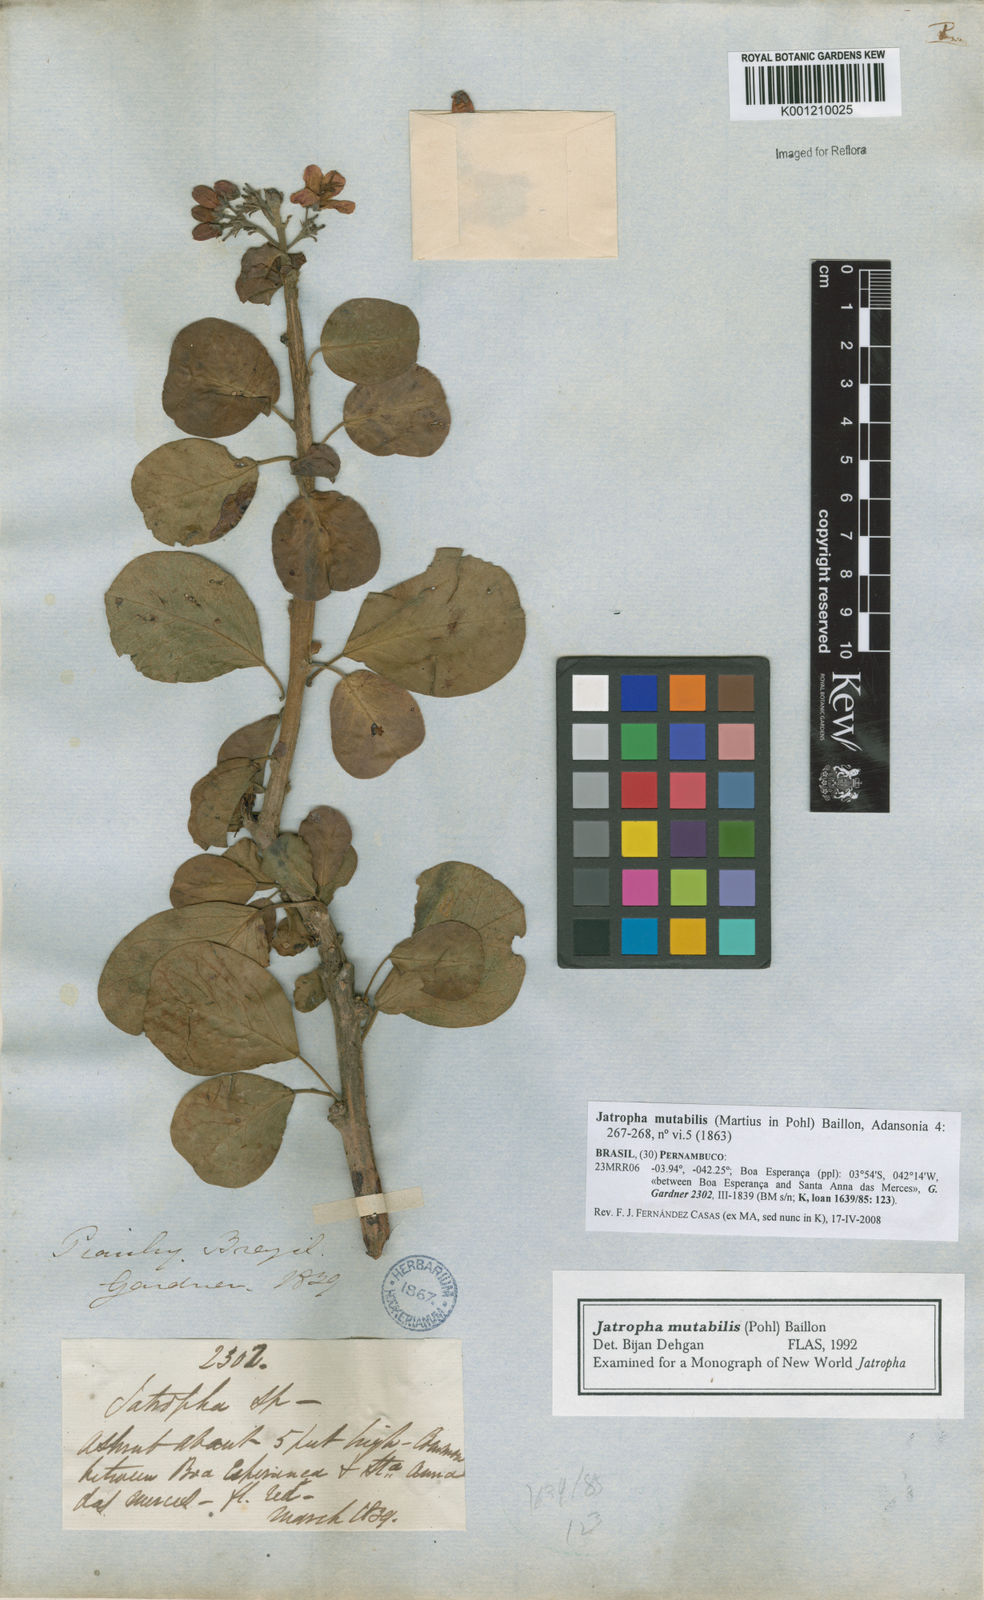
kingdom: Plantae
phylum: Tracheophyta
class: Magnoliopsida
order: Malpighiales
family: Euphorbiaceae
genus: Jatropha
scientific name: Jatropha mutabilis
